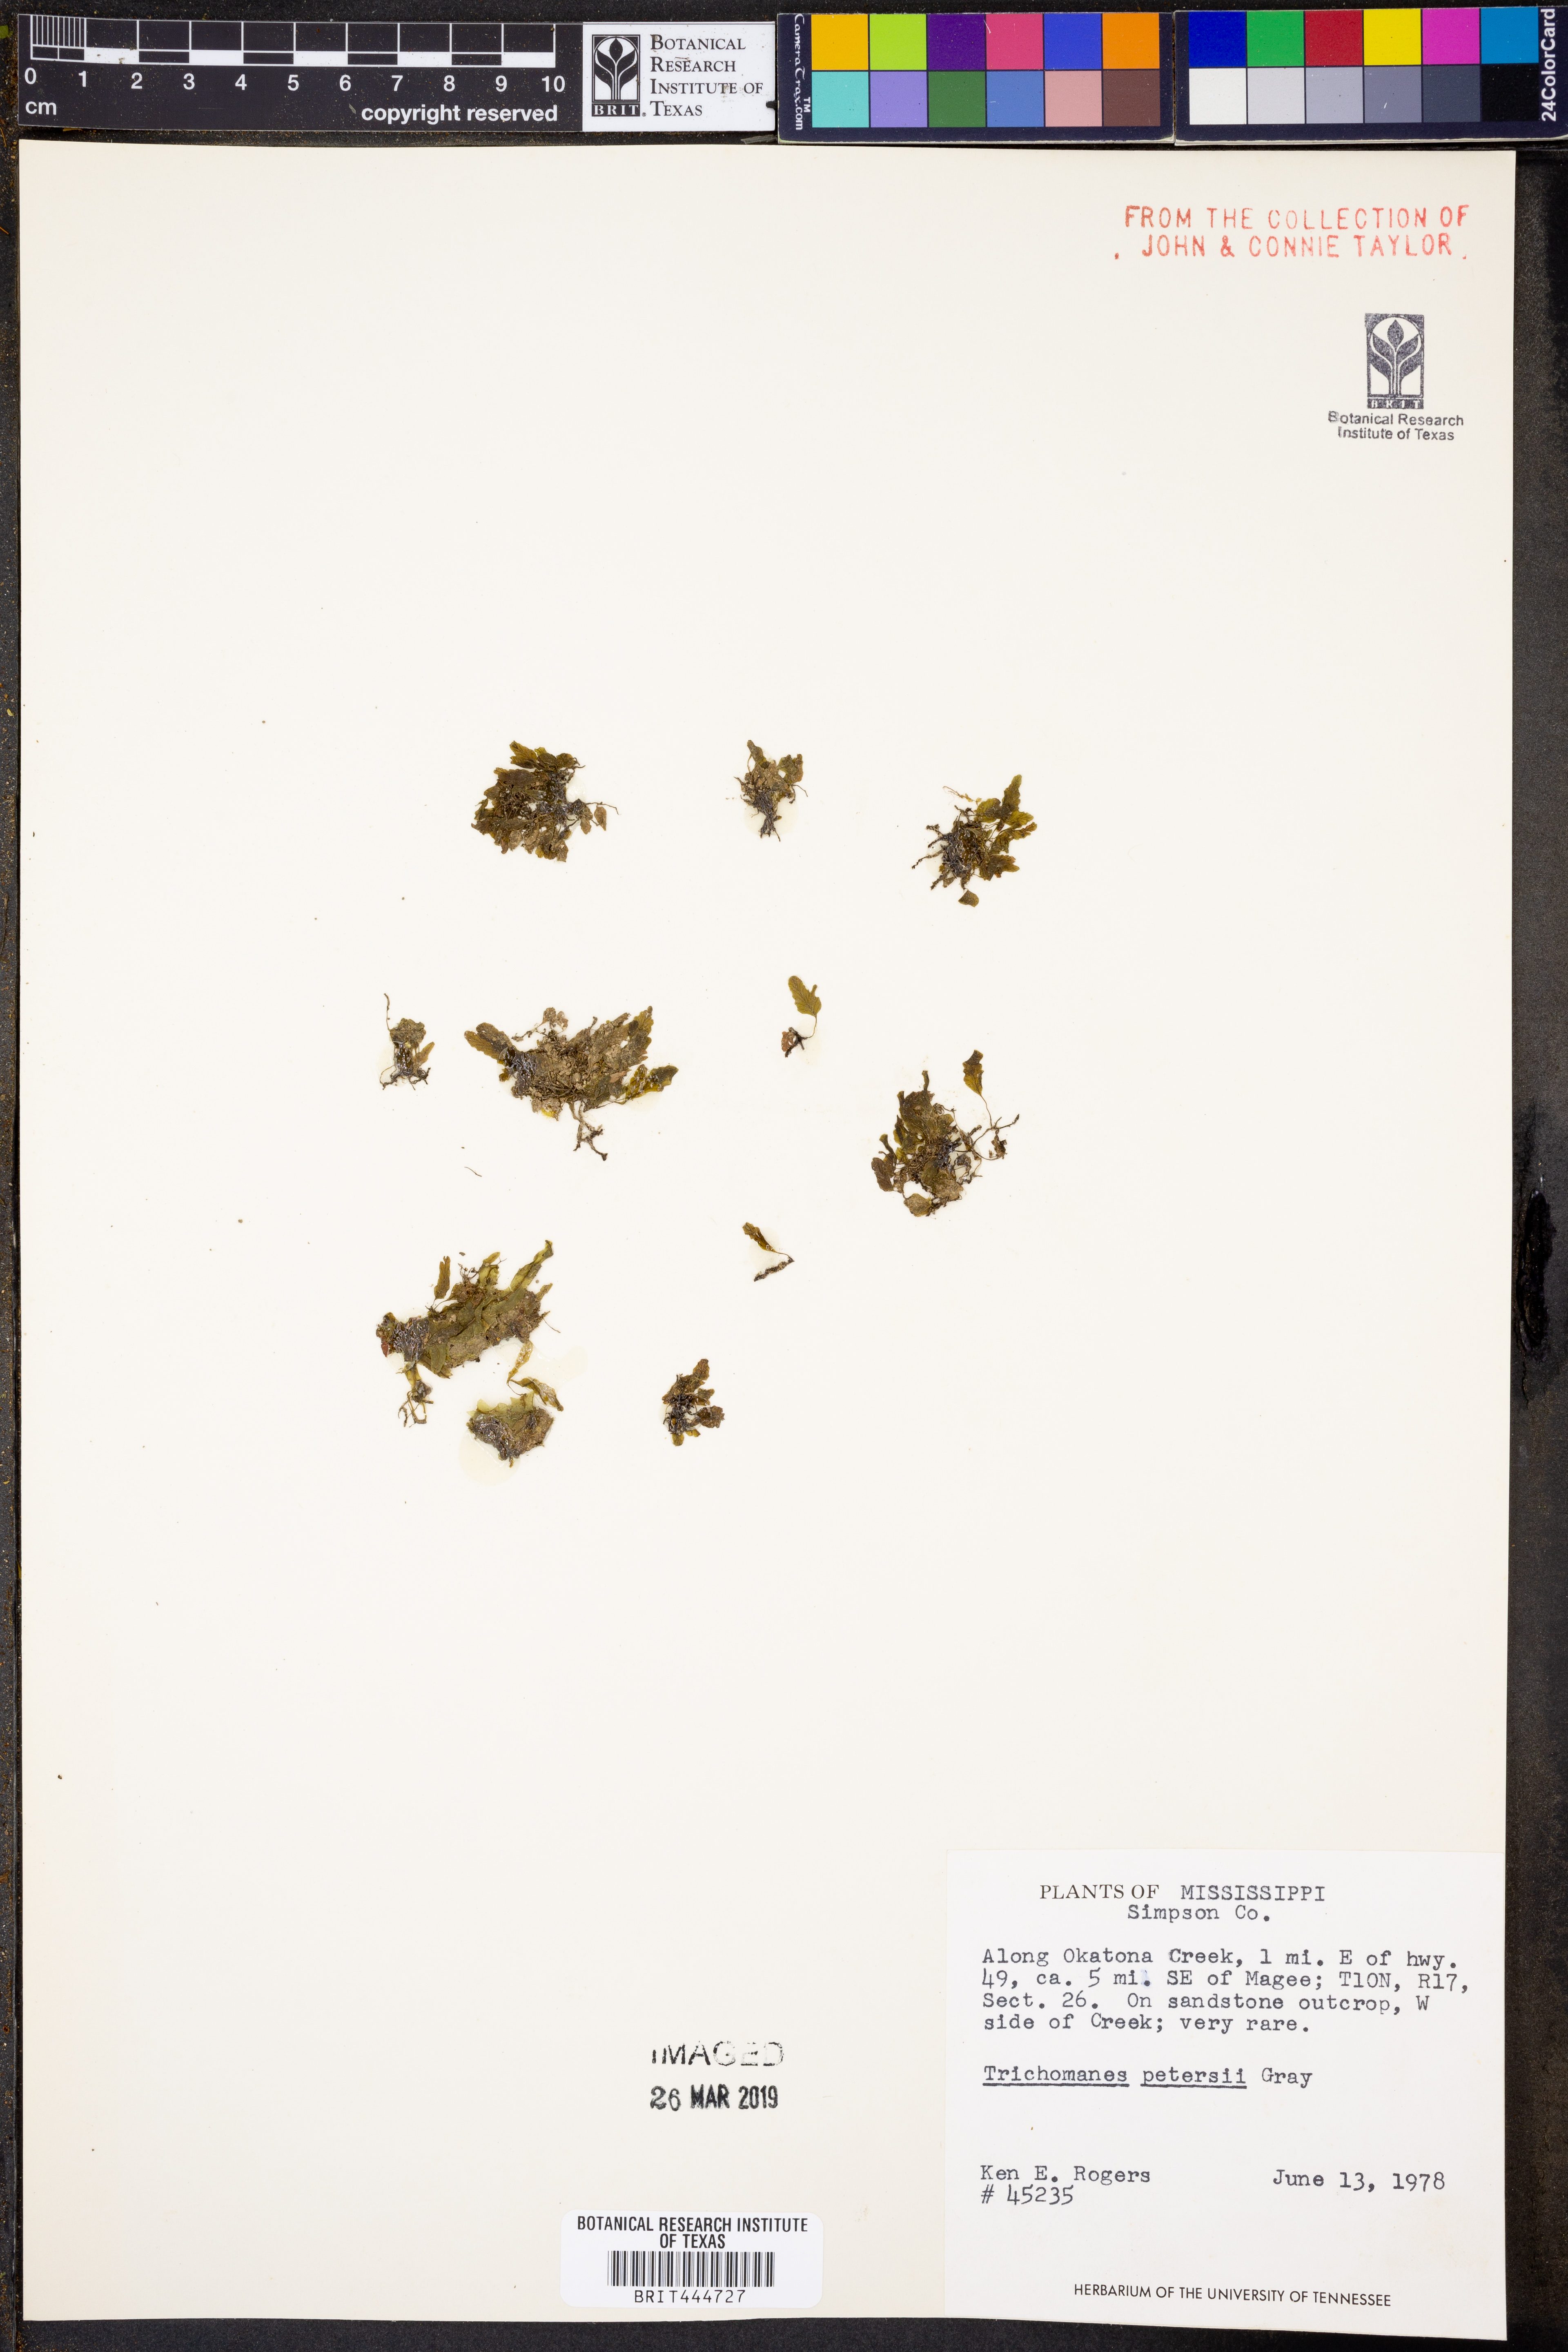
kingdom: Plantae
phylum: Tracheophyta
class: Polypodiopsida
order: Hymenophyllales
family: Hymenophyllaceae
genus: Didymoglossum
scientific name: Didymoglossum petersii
